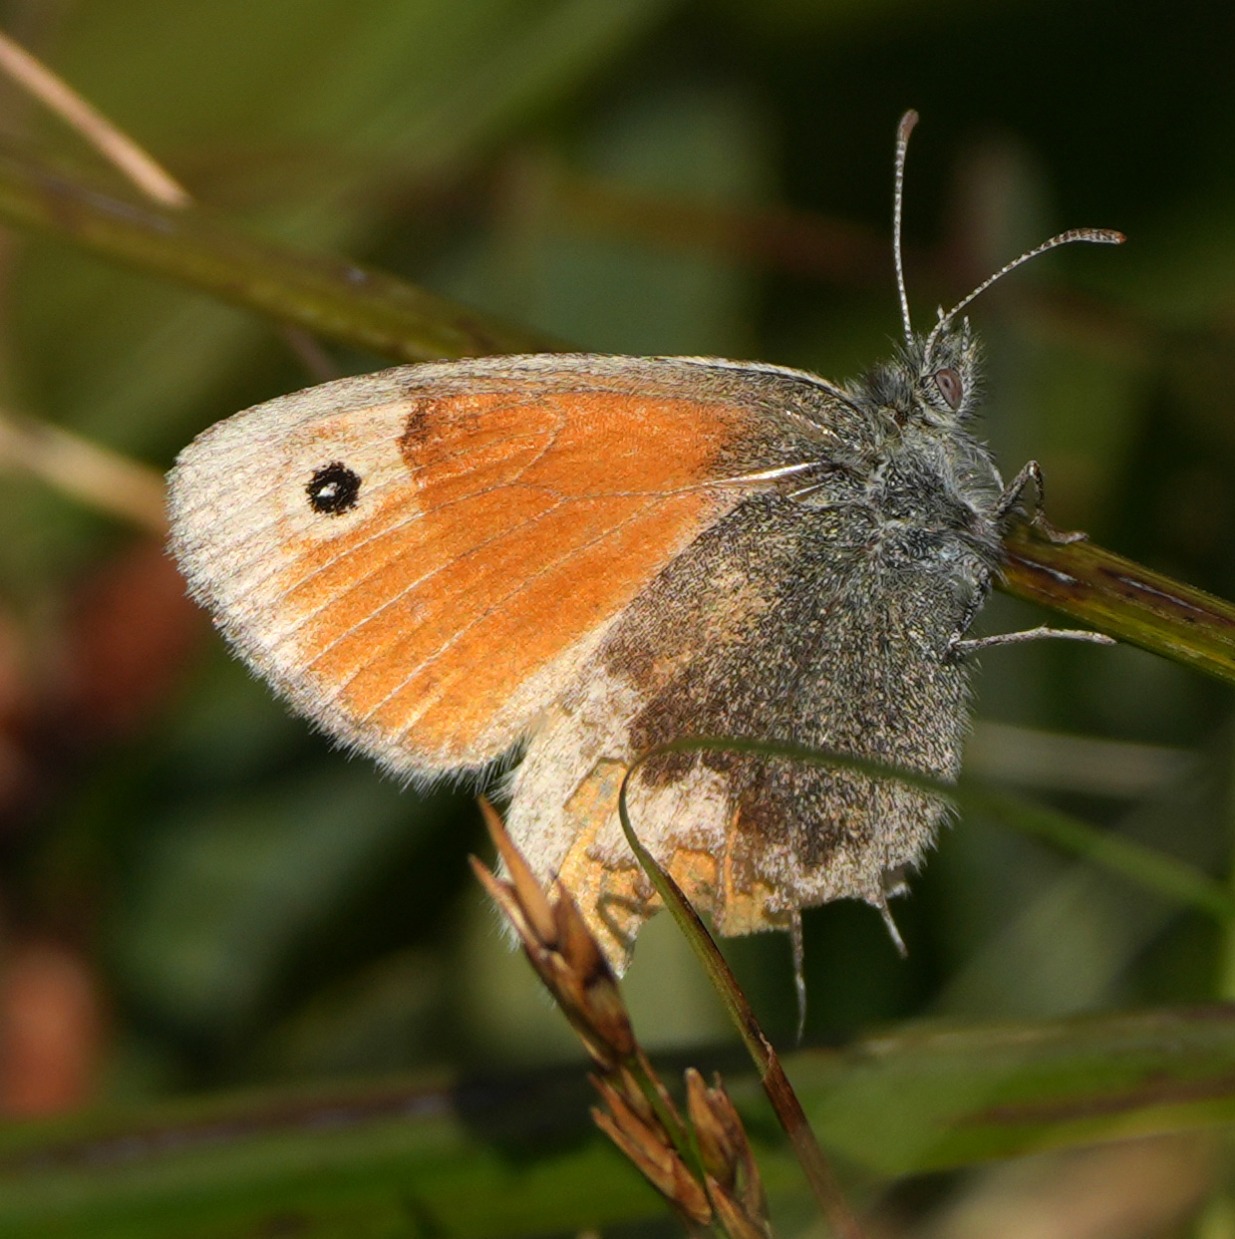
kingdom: Animalia
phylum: Arthropoda
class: Insecta
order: Lepidoptera
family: Nymphalidae
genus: Coenonympha
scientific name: Coenonympha pamphilus
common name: Okkergul randøje
